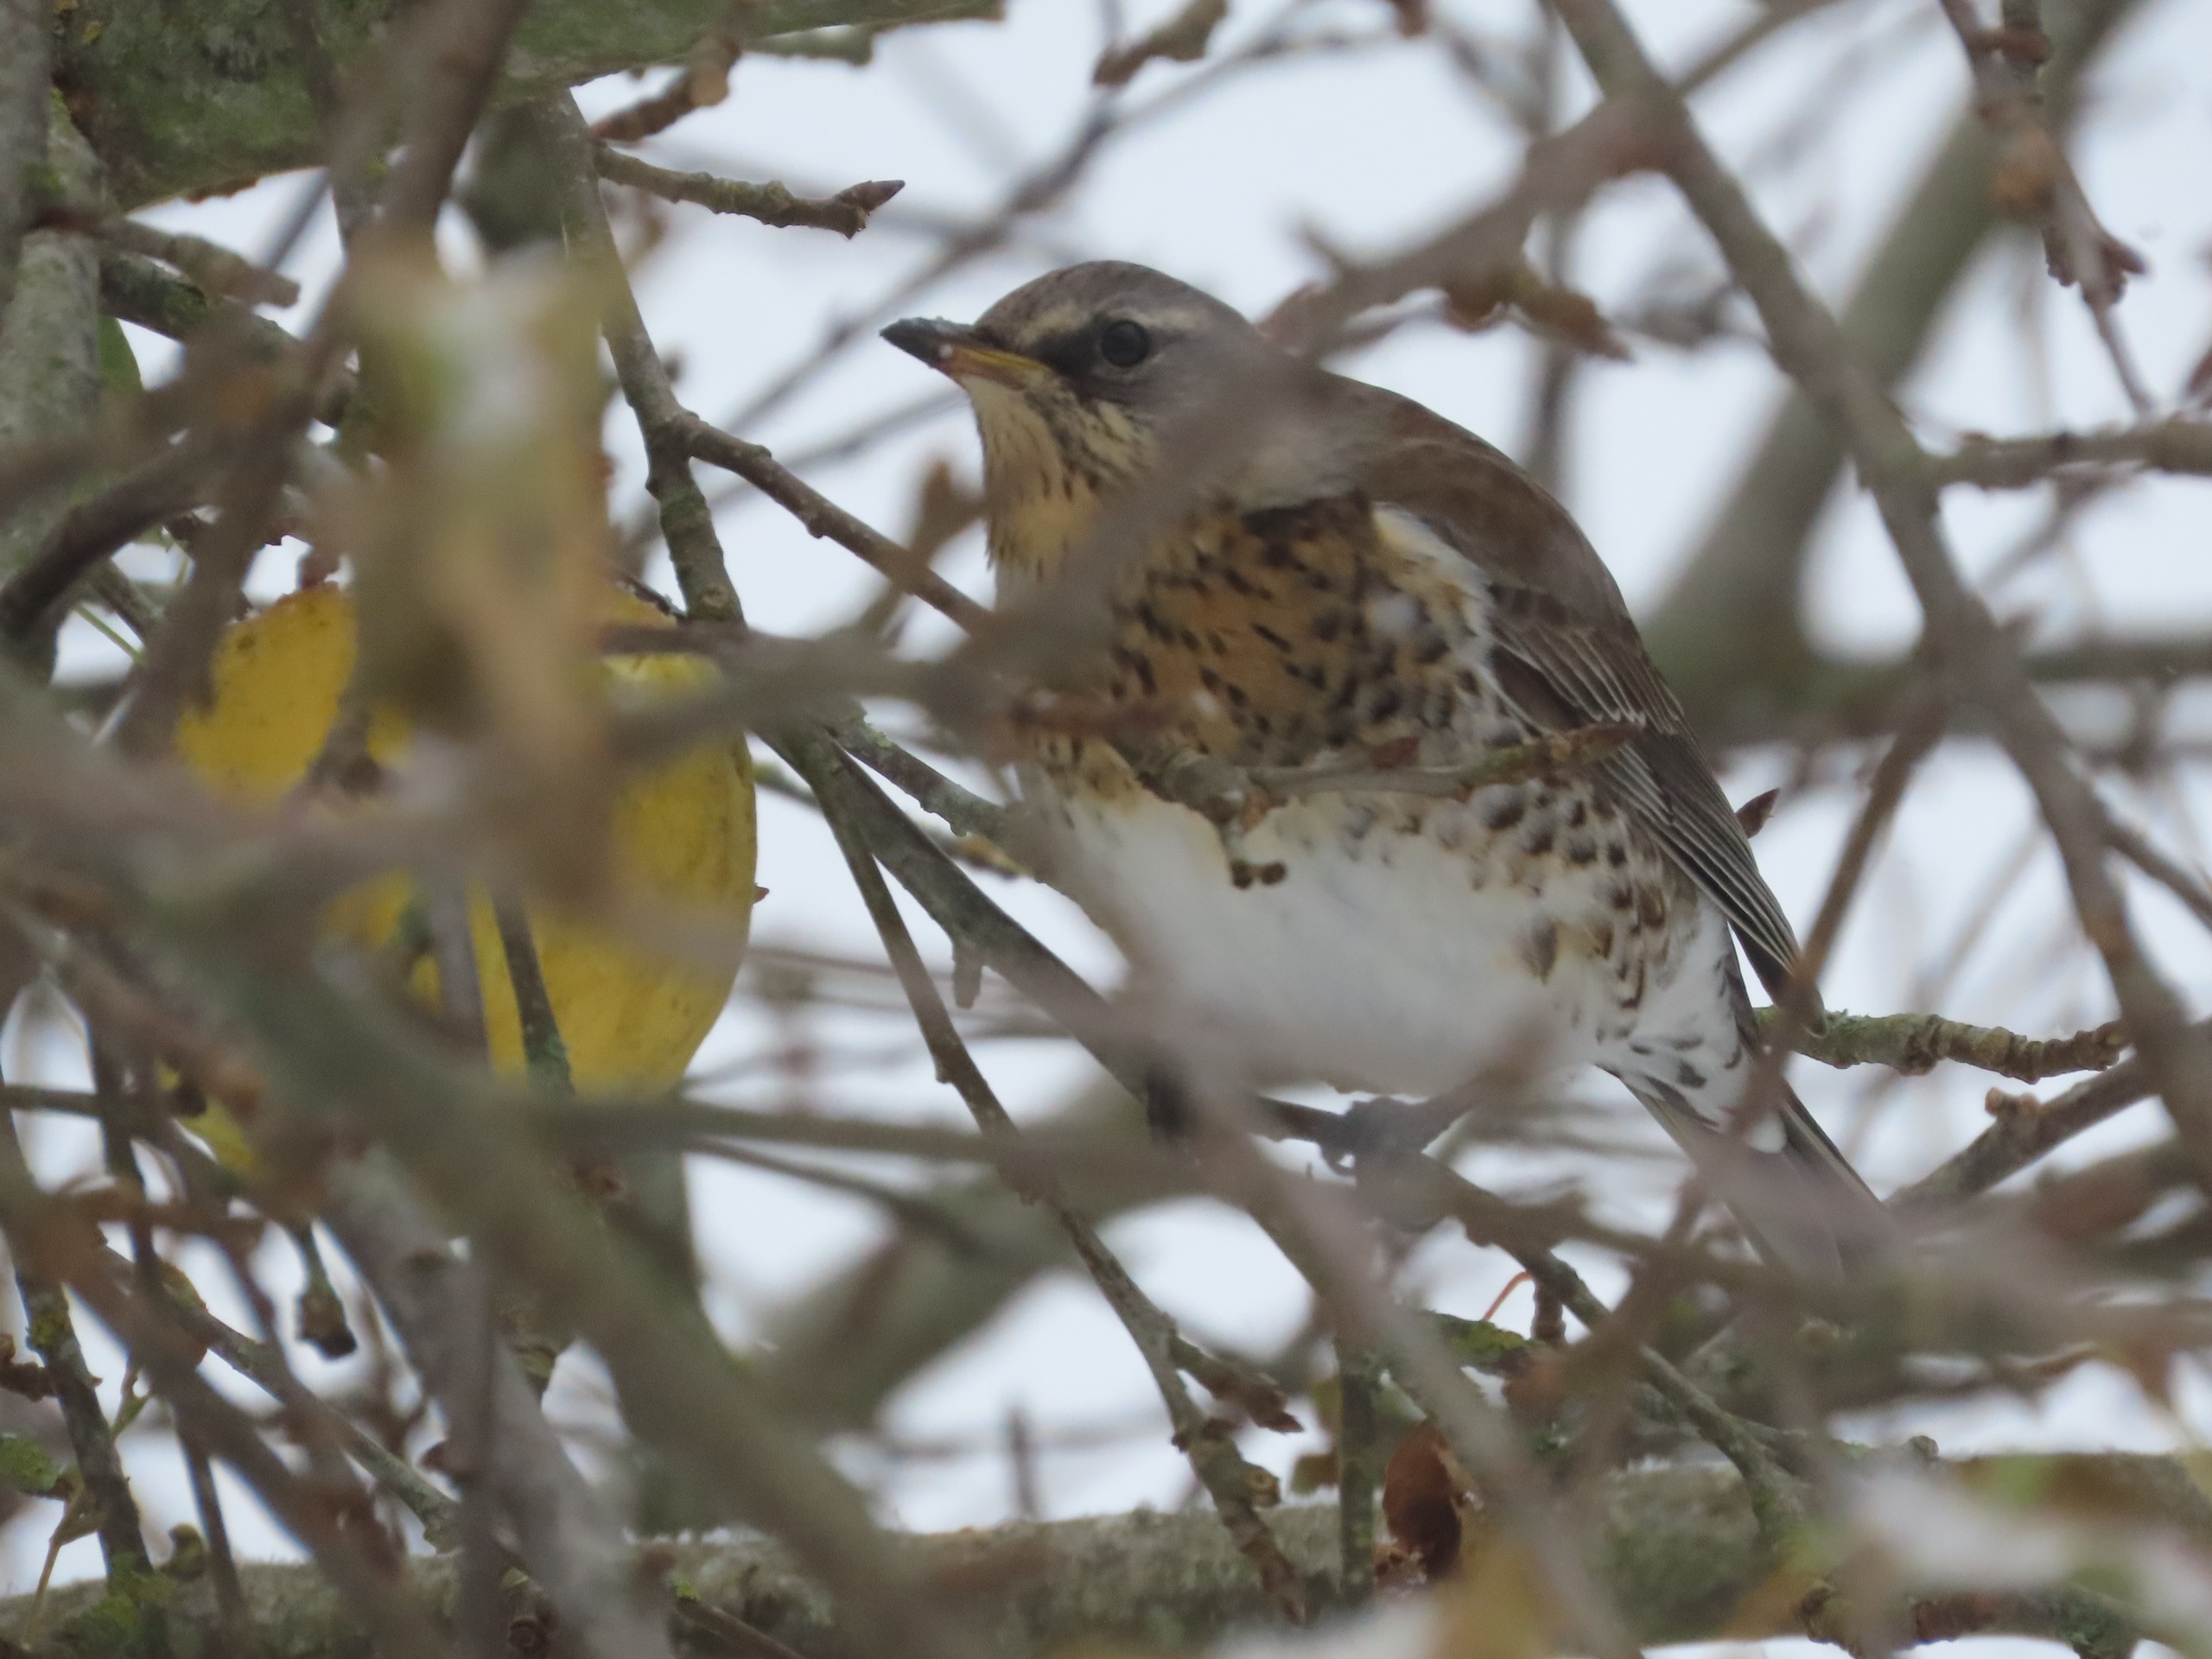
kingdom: Animalia
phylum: Chordata
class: Aves
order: Passeriformes
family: Turdidae
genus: Turdus
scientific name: Turdus pilaris
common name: Sjagger
